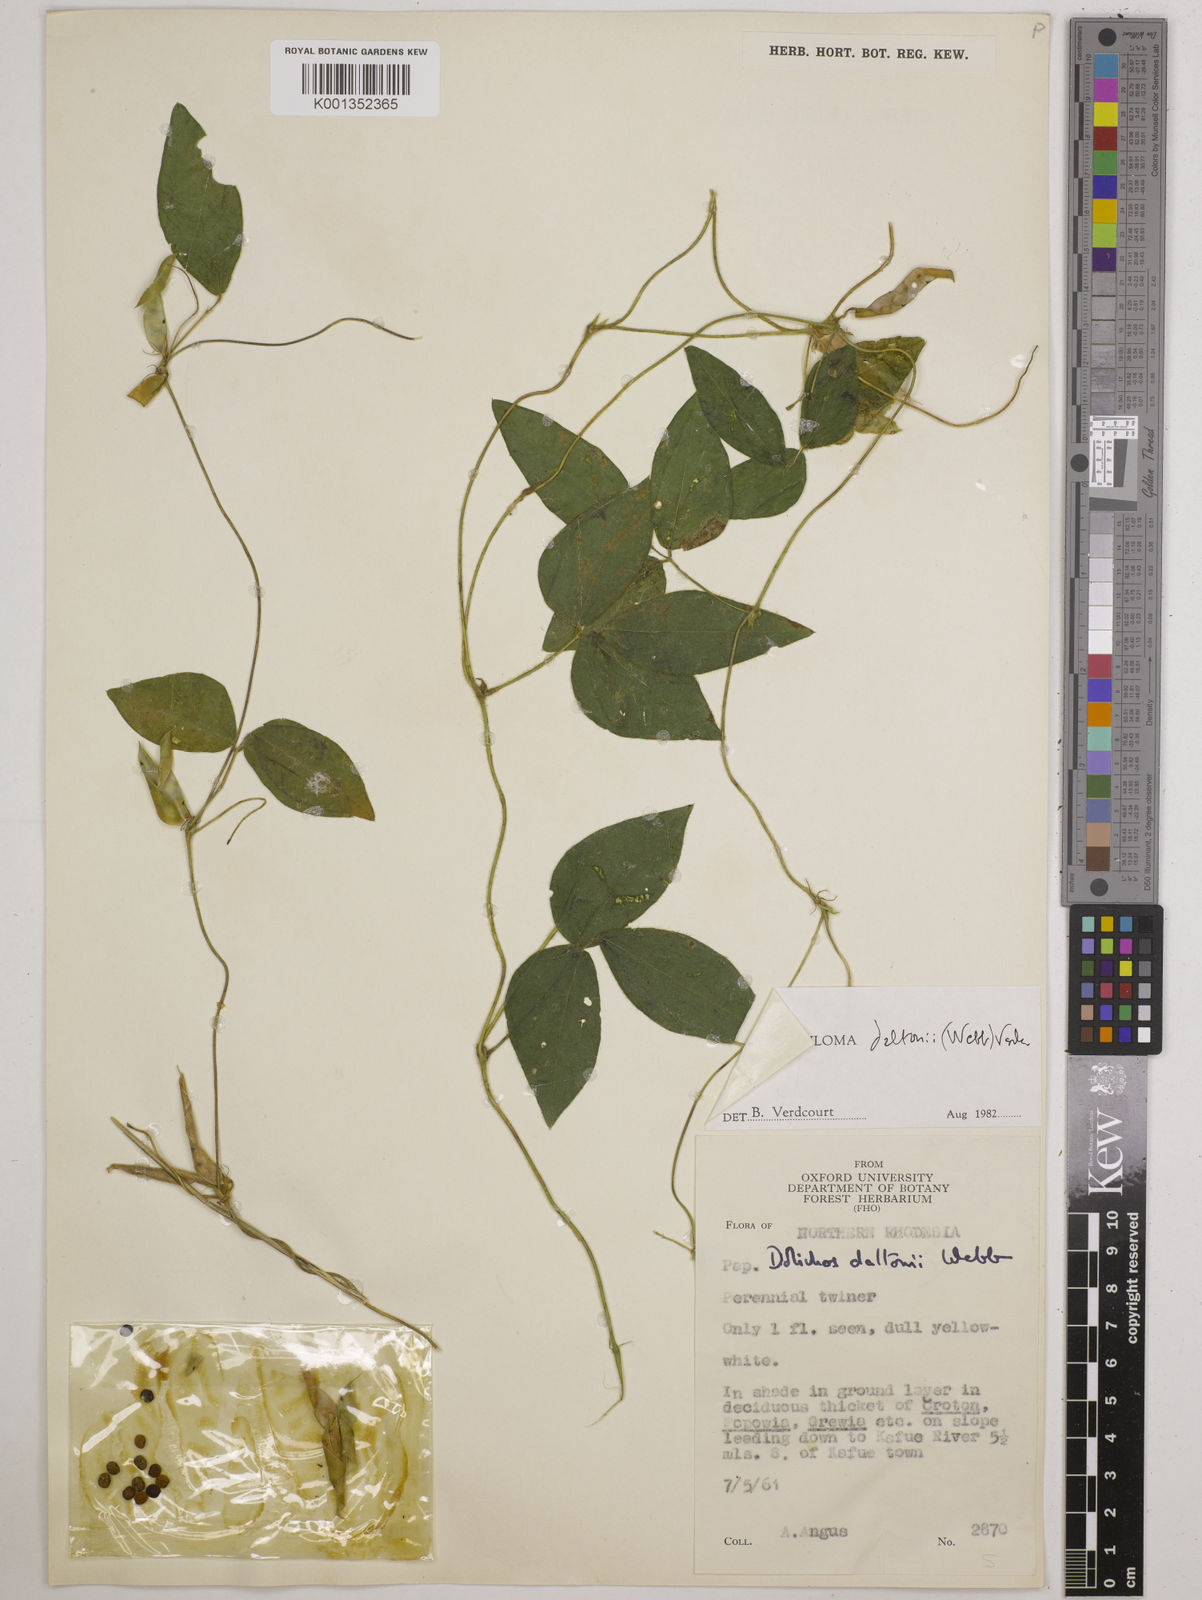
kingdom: Plantae
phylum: Tracheophyta
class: Magnoliopsida
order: Fabales
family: Fabaceae
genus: Macrotyloma
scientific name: Macrotyloma daltonii
